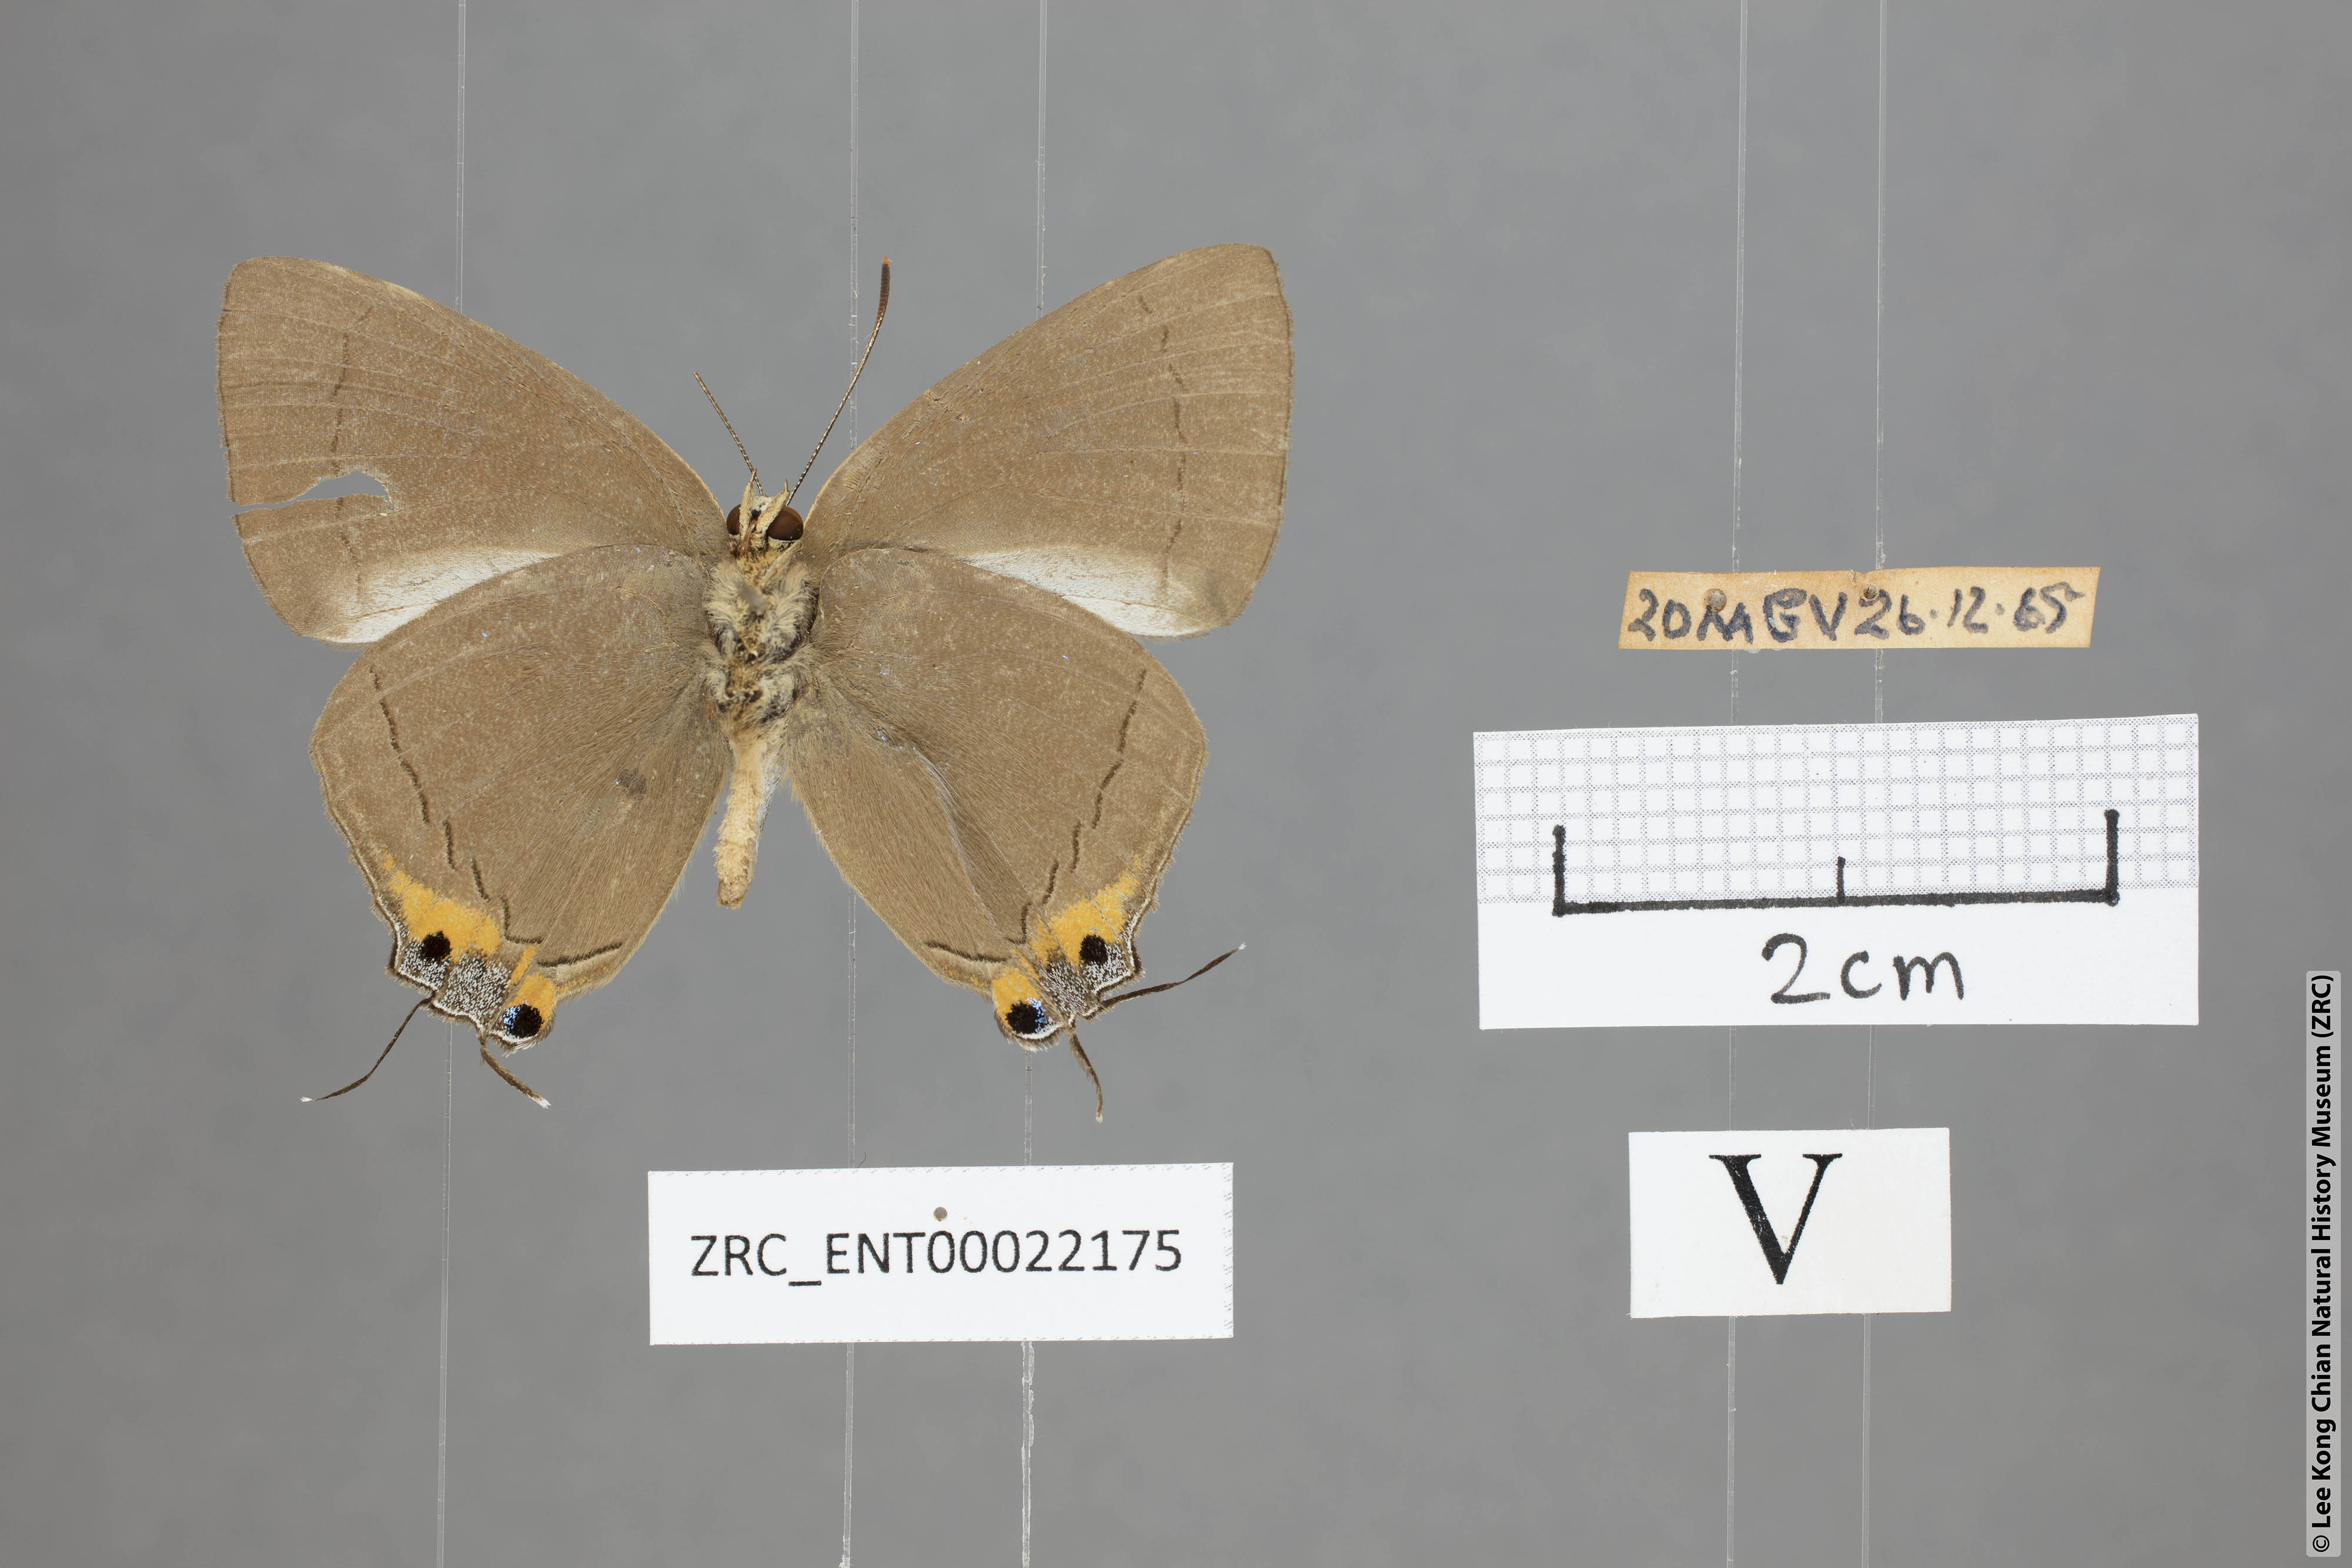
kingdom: Animalia
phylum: Arthropoda
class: Insecta
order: Lepidoptera
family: Lycaenidae
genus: Tajuria
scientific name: Tajuria deudaix
